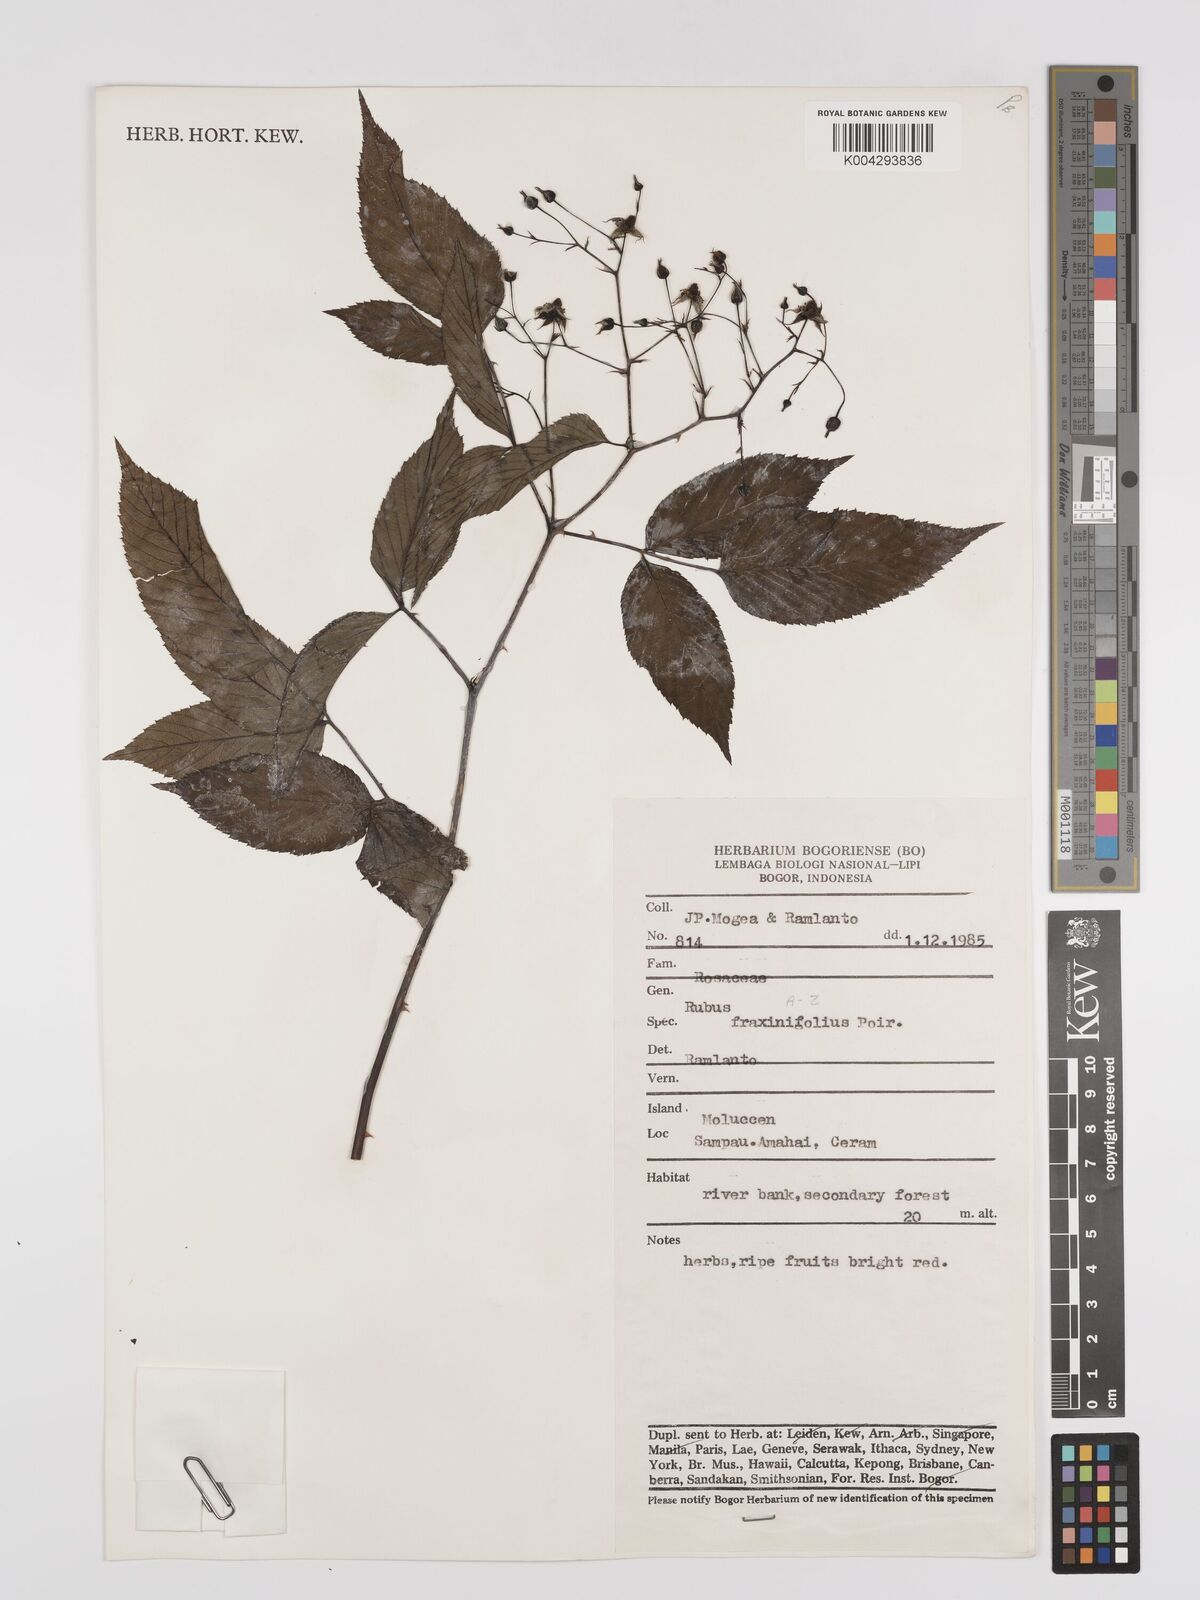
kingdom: Plantae
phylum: Tracheophyta
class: Magnoliopsida
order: Rosales
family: Rosaceae
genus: Rubus
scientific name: Rubus fraxinifolius
